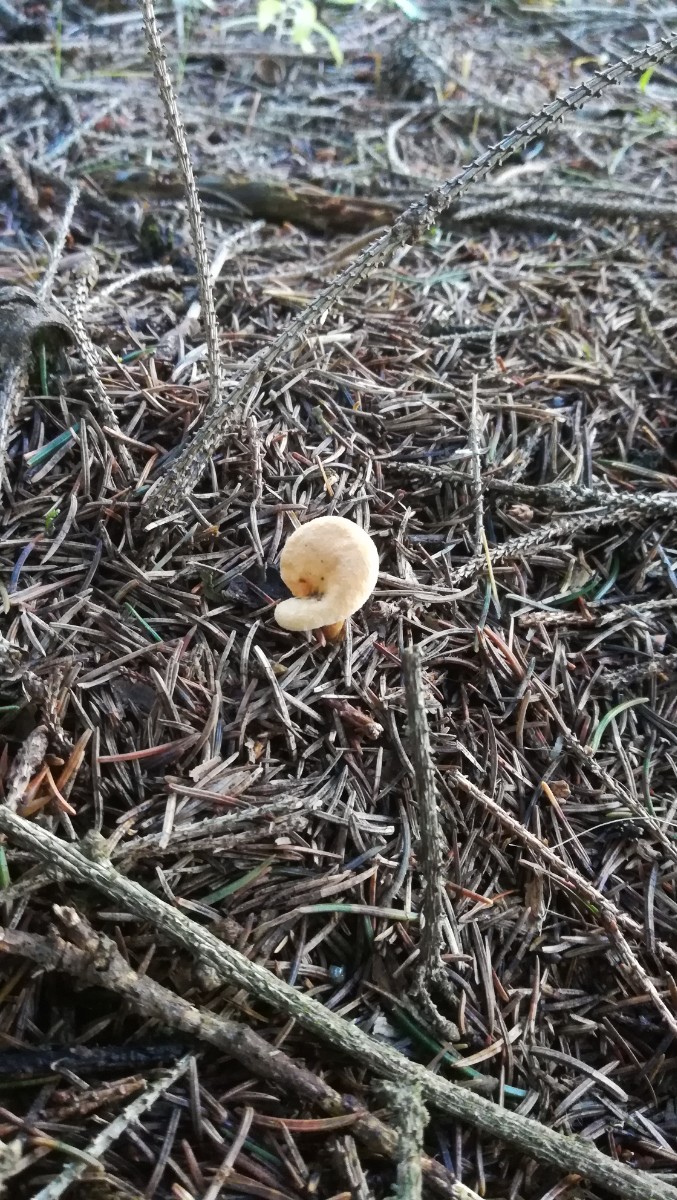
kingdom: Fungi
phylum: Basidiomycota
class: Agaricomycetes
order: Boletales
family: Hygrophoropsidaceae
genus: Hygrophoropsis
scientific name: Hygrophoropsis aurantiaca
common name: almindelig orangekantarel
